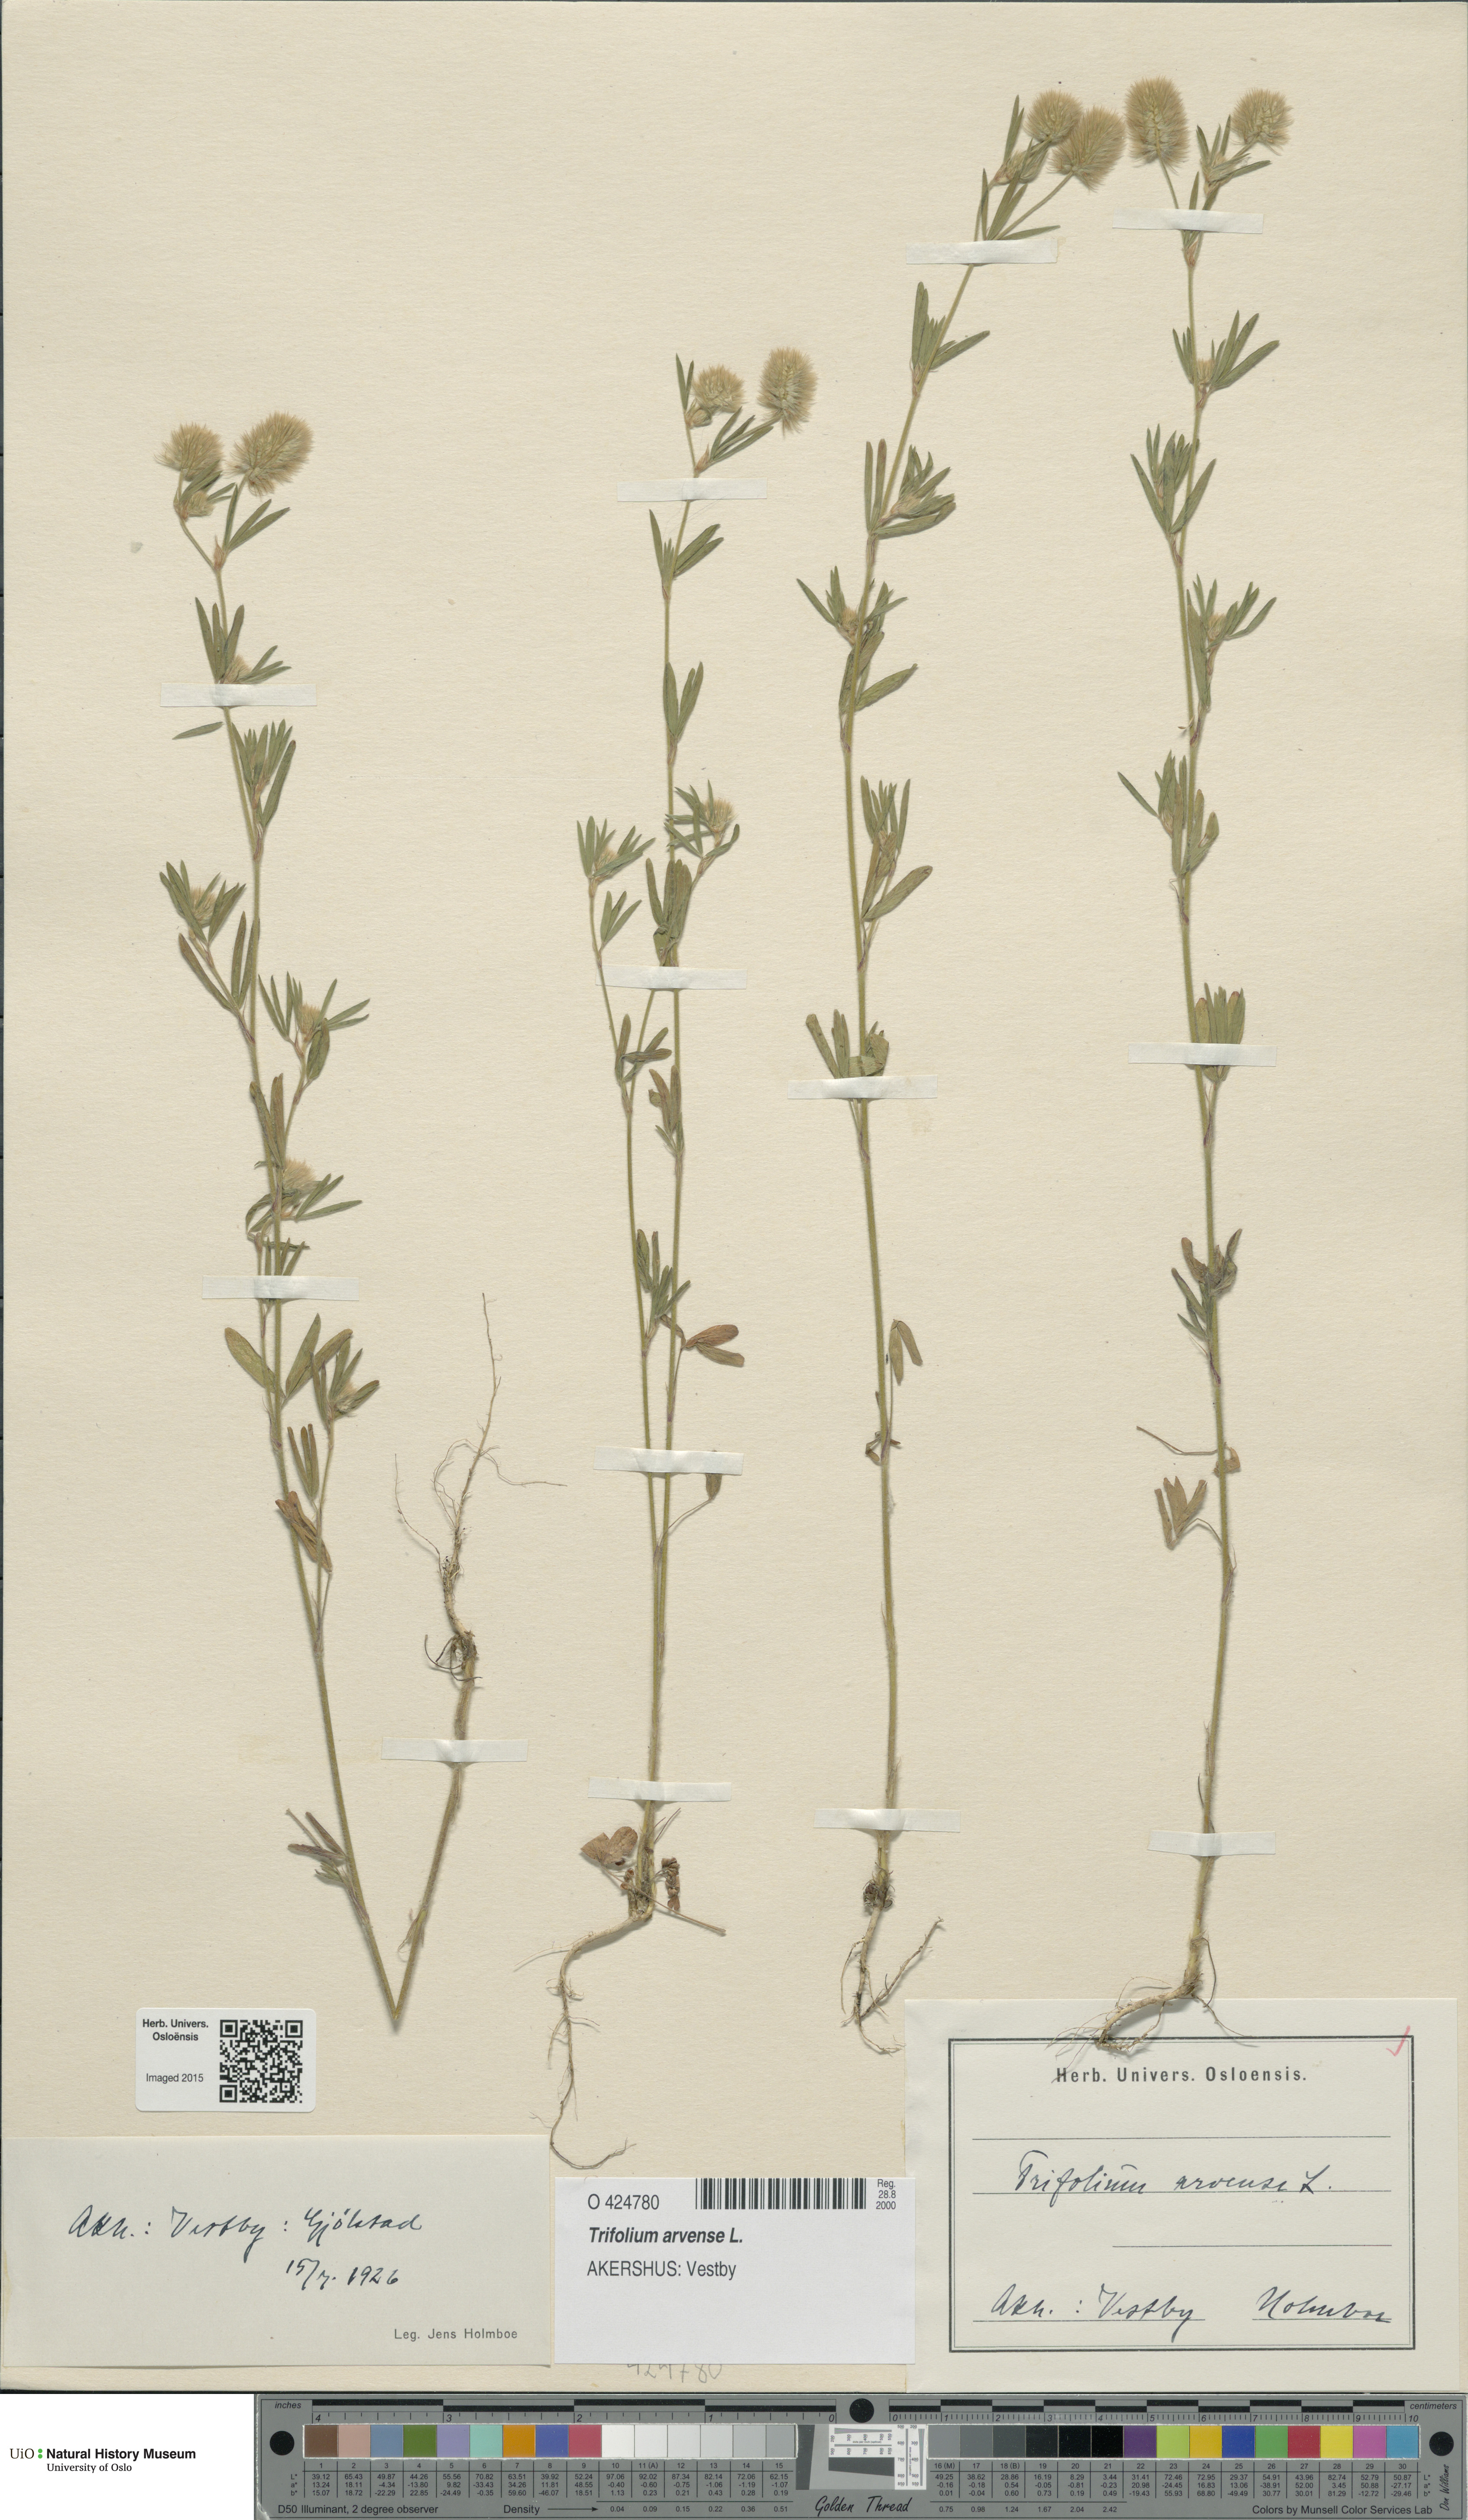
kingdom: Plantae
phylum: Tracheophyta
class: Magnoliopsida
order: Fabales
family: Fabaceae
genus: Trifolium
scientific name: Trifolium arvense
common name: Hare's-foot clover
